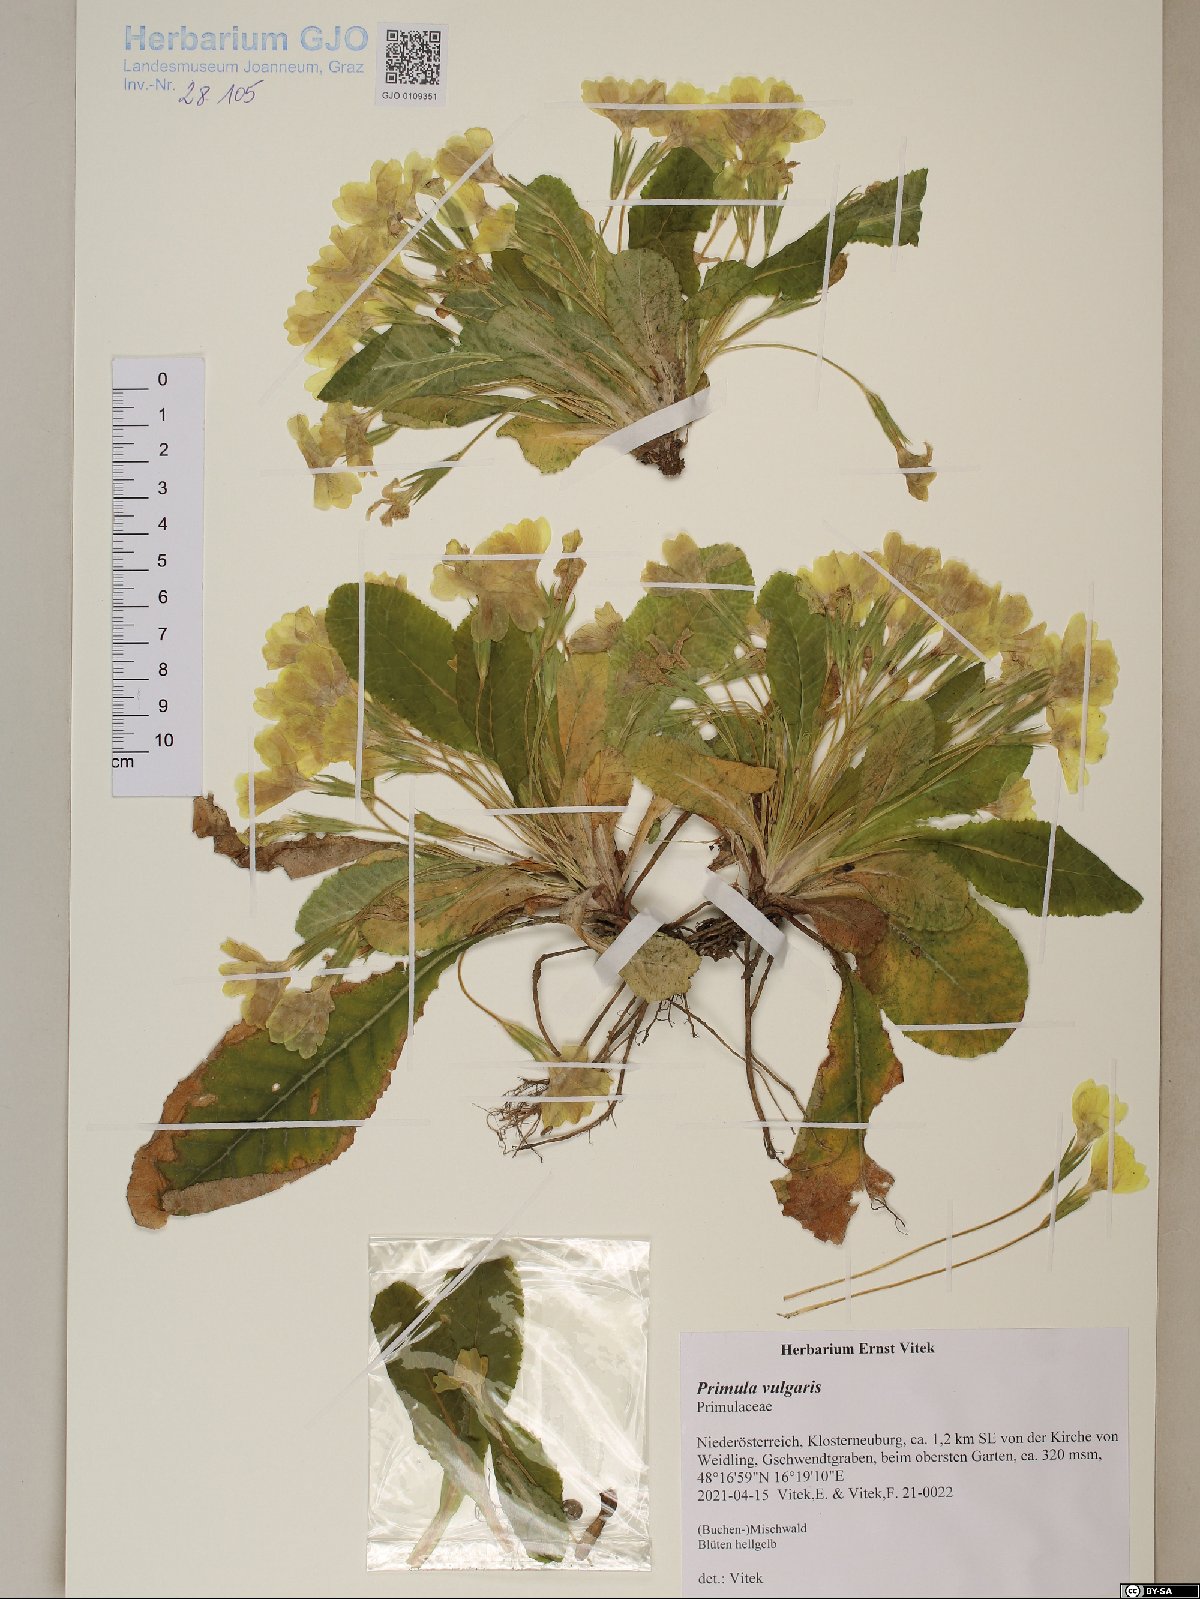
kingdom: Plantae
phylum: Tracheophyta
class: Magnoliopsida
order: Ericales
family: Primulaceae
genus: Primula
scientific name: Primula vulgaris
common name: Primrose
